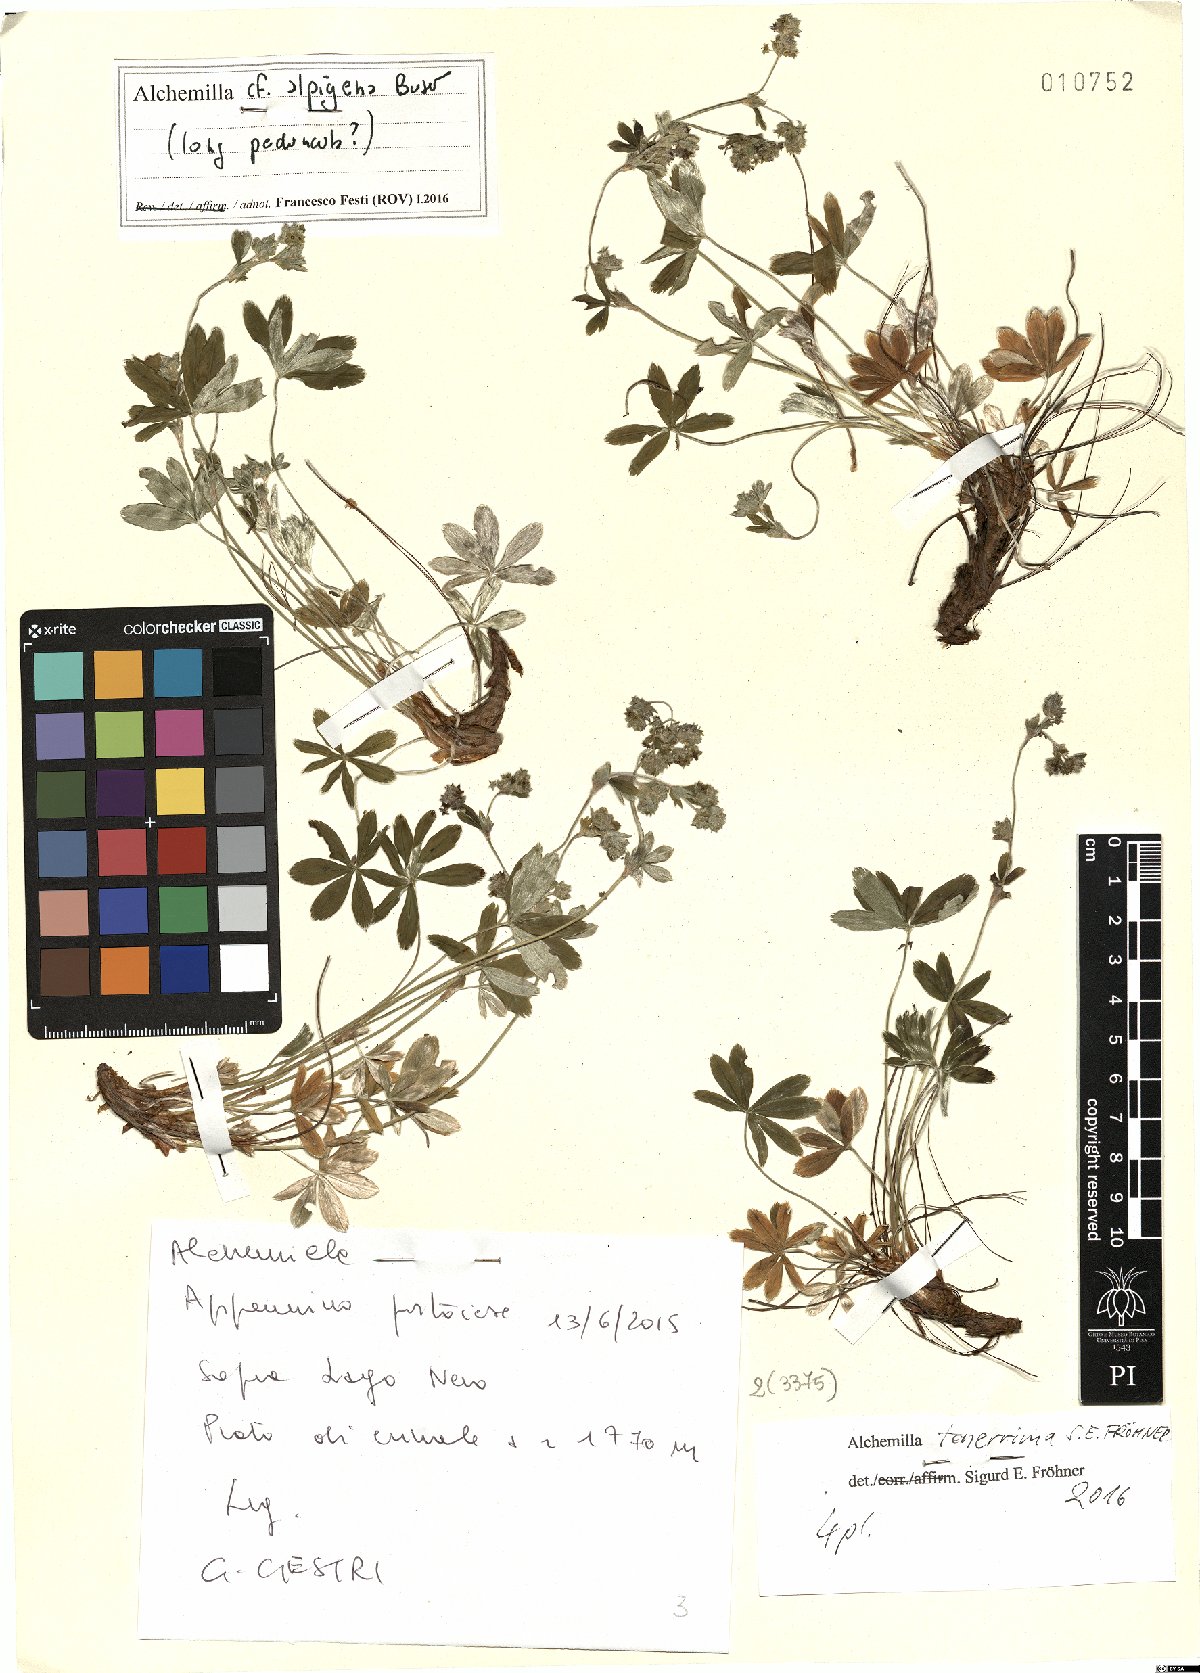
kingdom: Plantae
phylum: Tracheophyta
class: Magnoliopsida
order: Rosales
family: Rosaceae
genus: Alchemilla
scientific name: Alchemilla tenerrima
